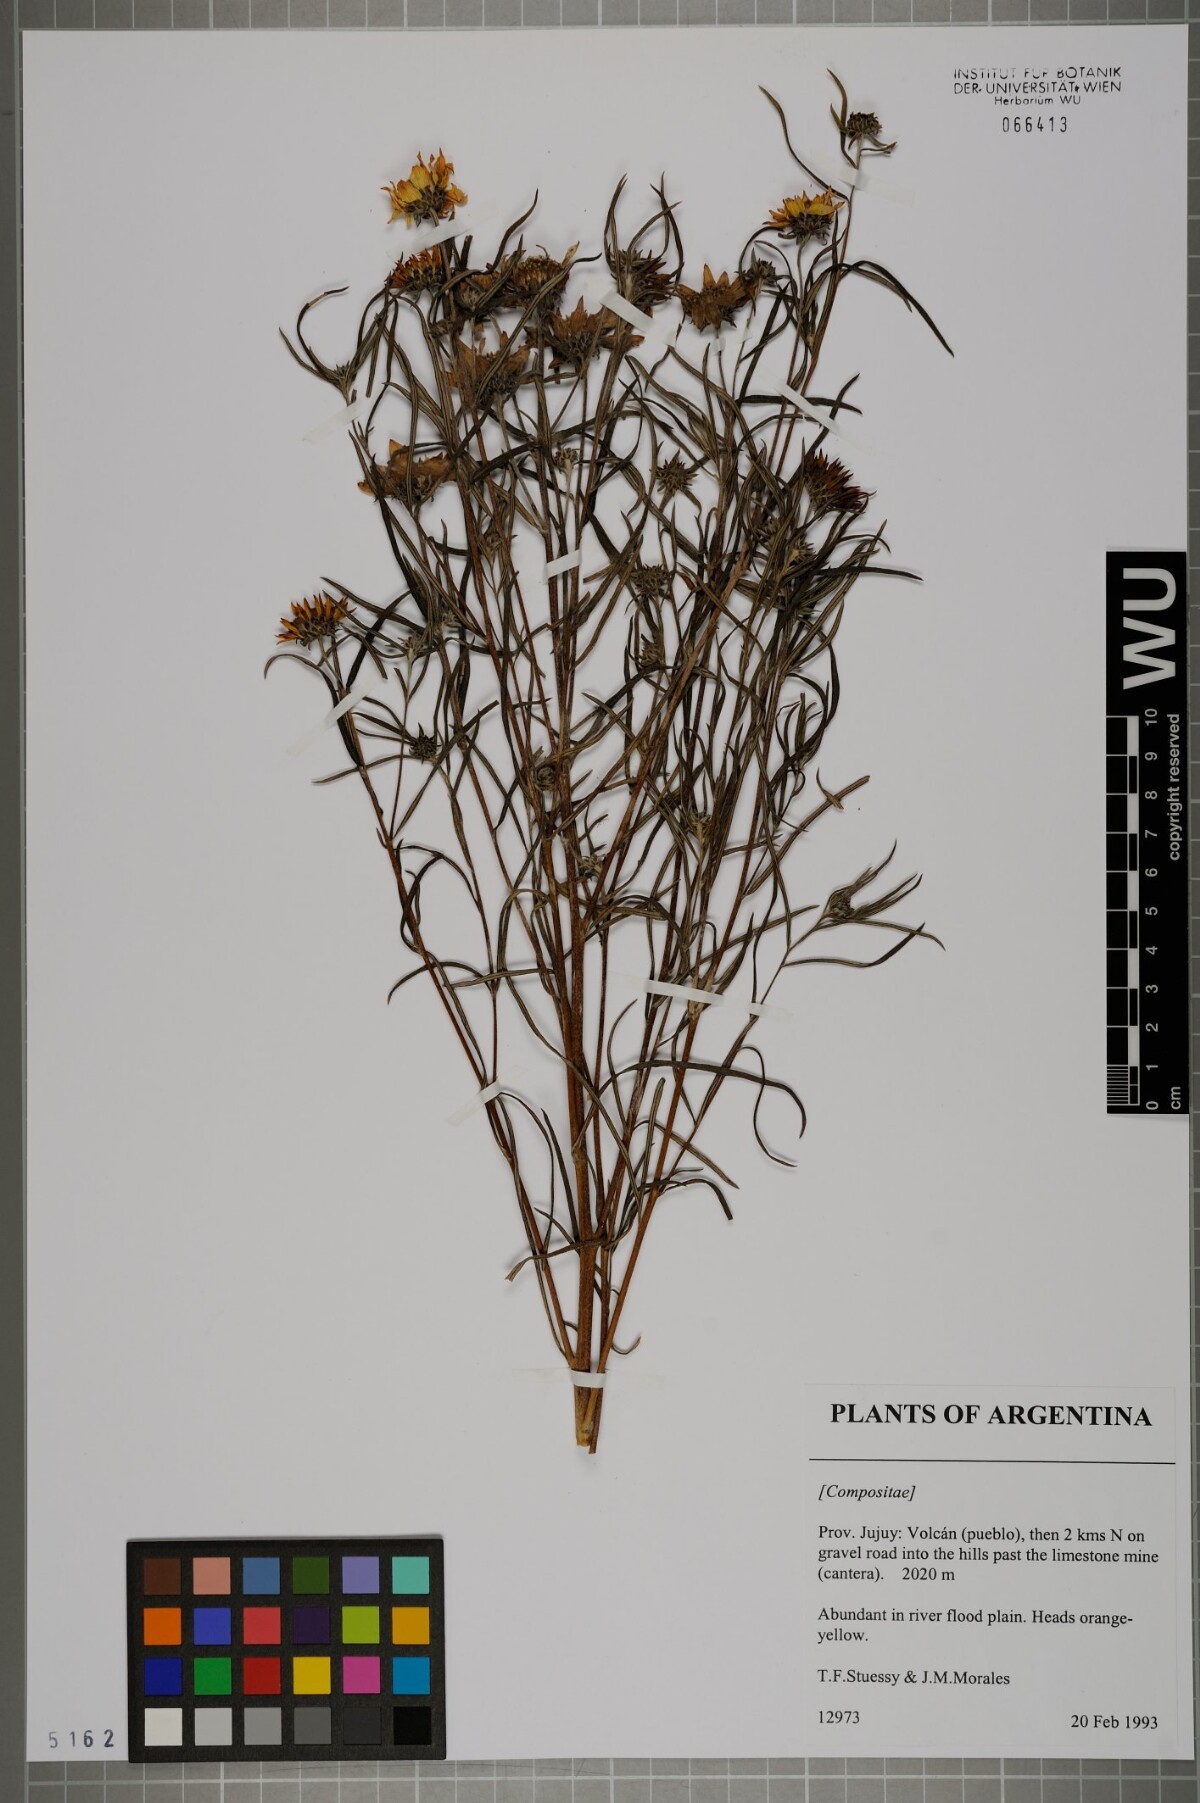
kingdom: Plantae
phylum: Tracheophyta
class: Magnoliopsida
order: Asterales
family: Asteraceae
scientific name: Asteraceae
